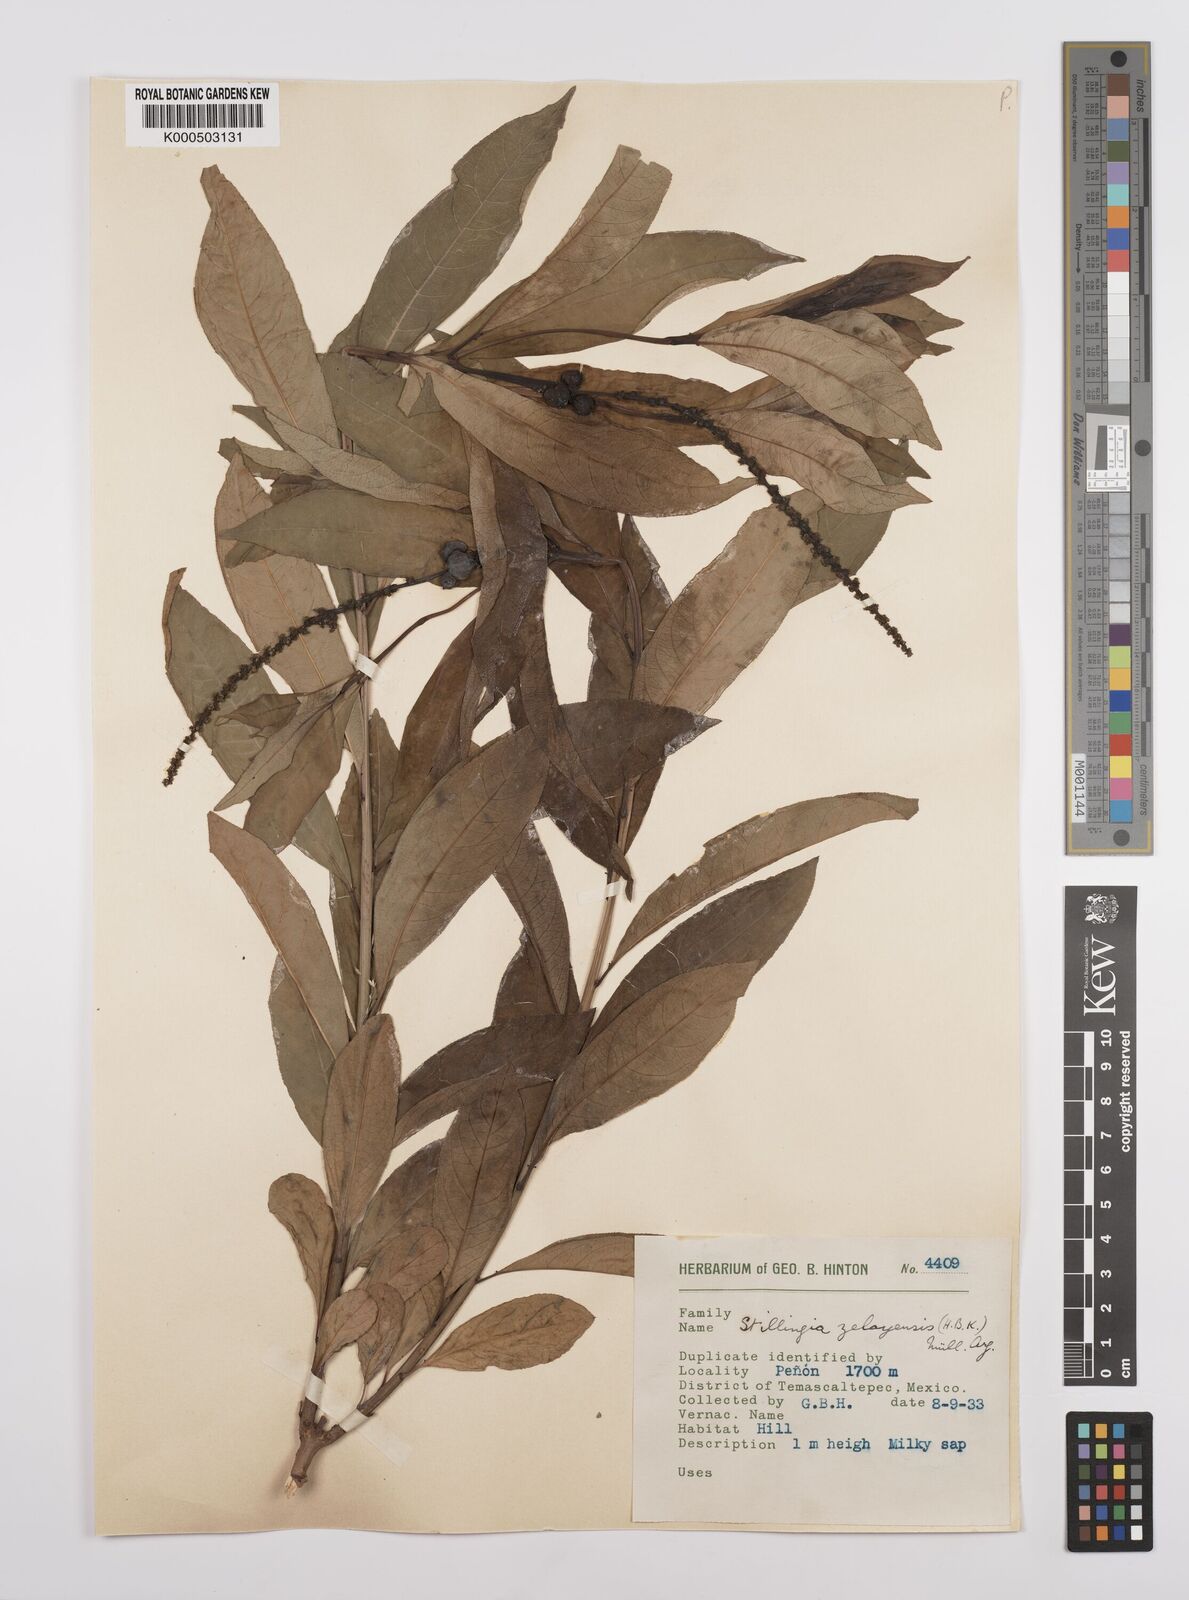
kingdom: Plantae
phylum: Tracheophyta
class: Magnoliopsida
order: Malpighiales
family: Euphorbiaceae
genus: Stillingia
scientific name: Stillingia
